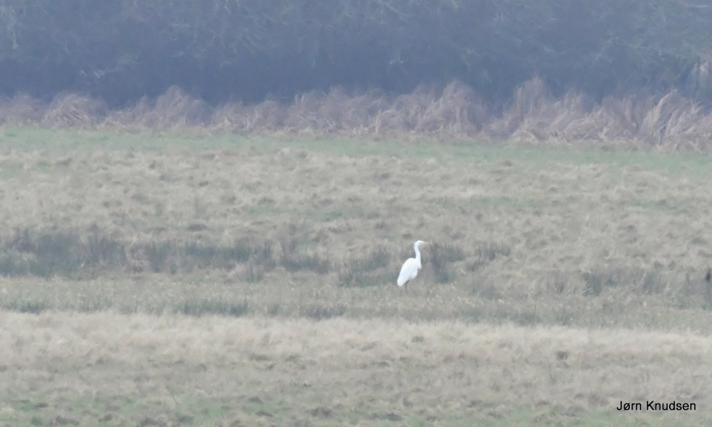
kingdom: Animalia
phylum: Chordata
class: Aves
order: Pelecaniformes
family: Ardeidae
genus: Ardea
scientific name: Ardea alba
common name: Sølvhejre
